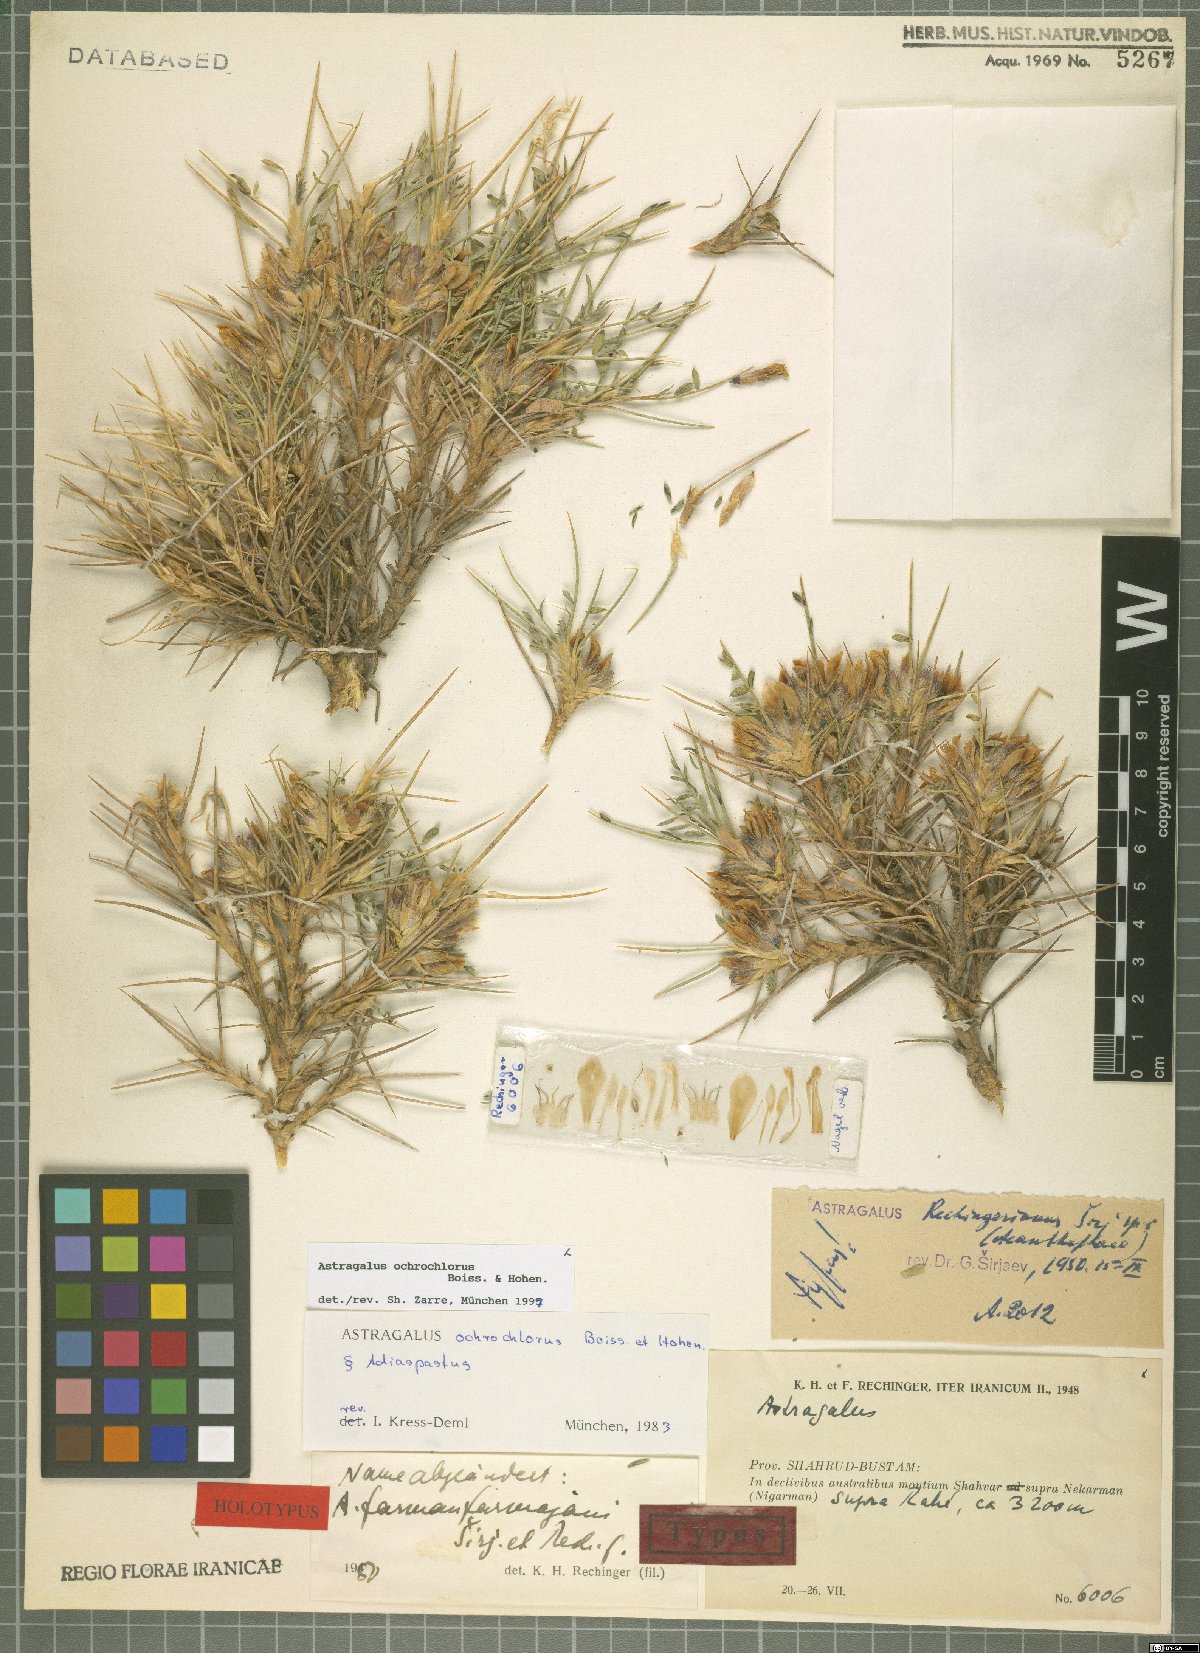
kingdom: Plantae
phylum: Tracheophyta
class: Magnoliopsida
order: Fabales
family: Fabaceae
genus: Astragalus
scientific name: Astragalus ochrochlorus
